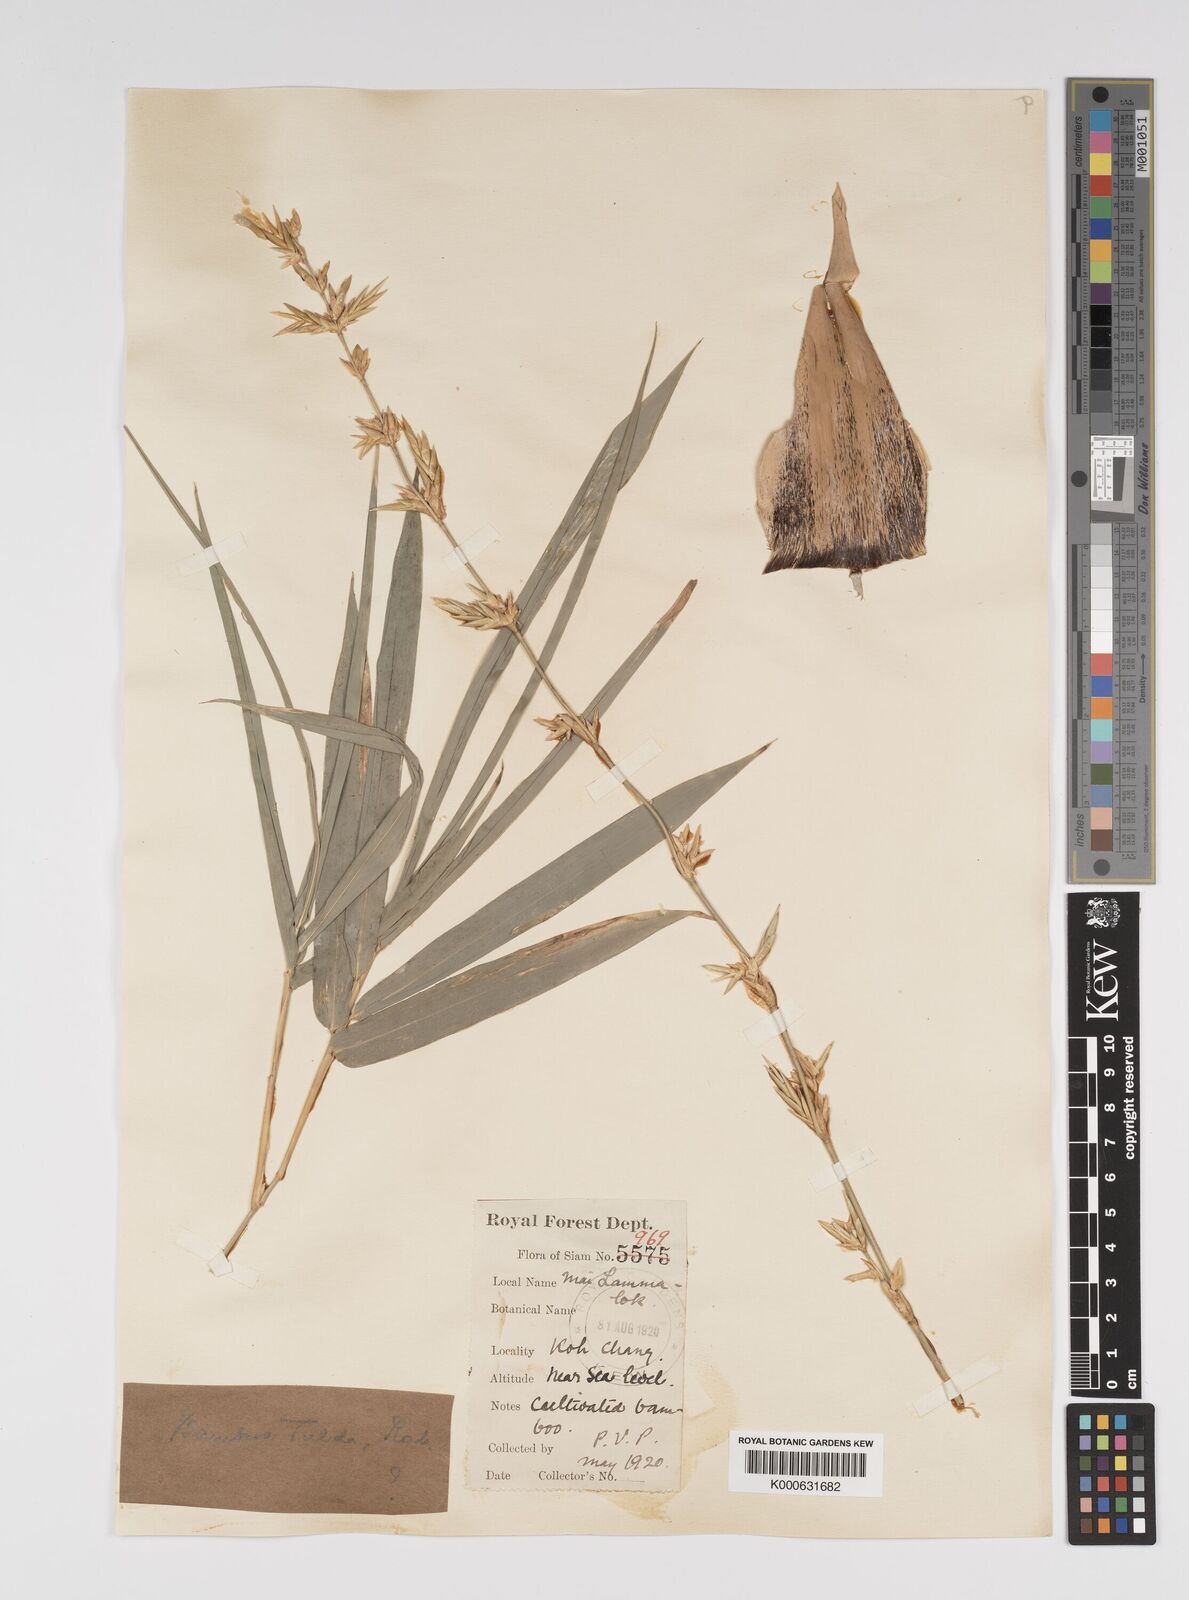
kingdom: Plantae
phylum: Tracheophyta
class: Liliopsida
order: Poales
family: Poaceae
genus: Bambusa
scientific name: Bambusa
